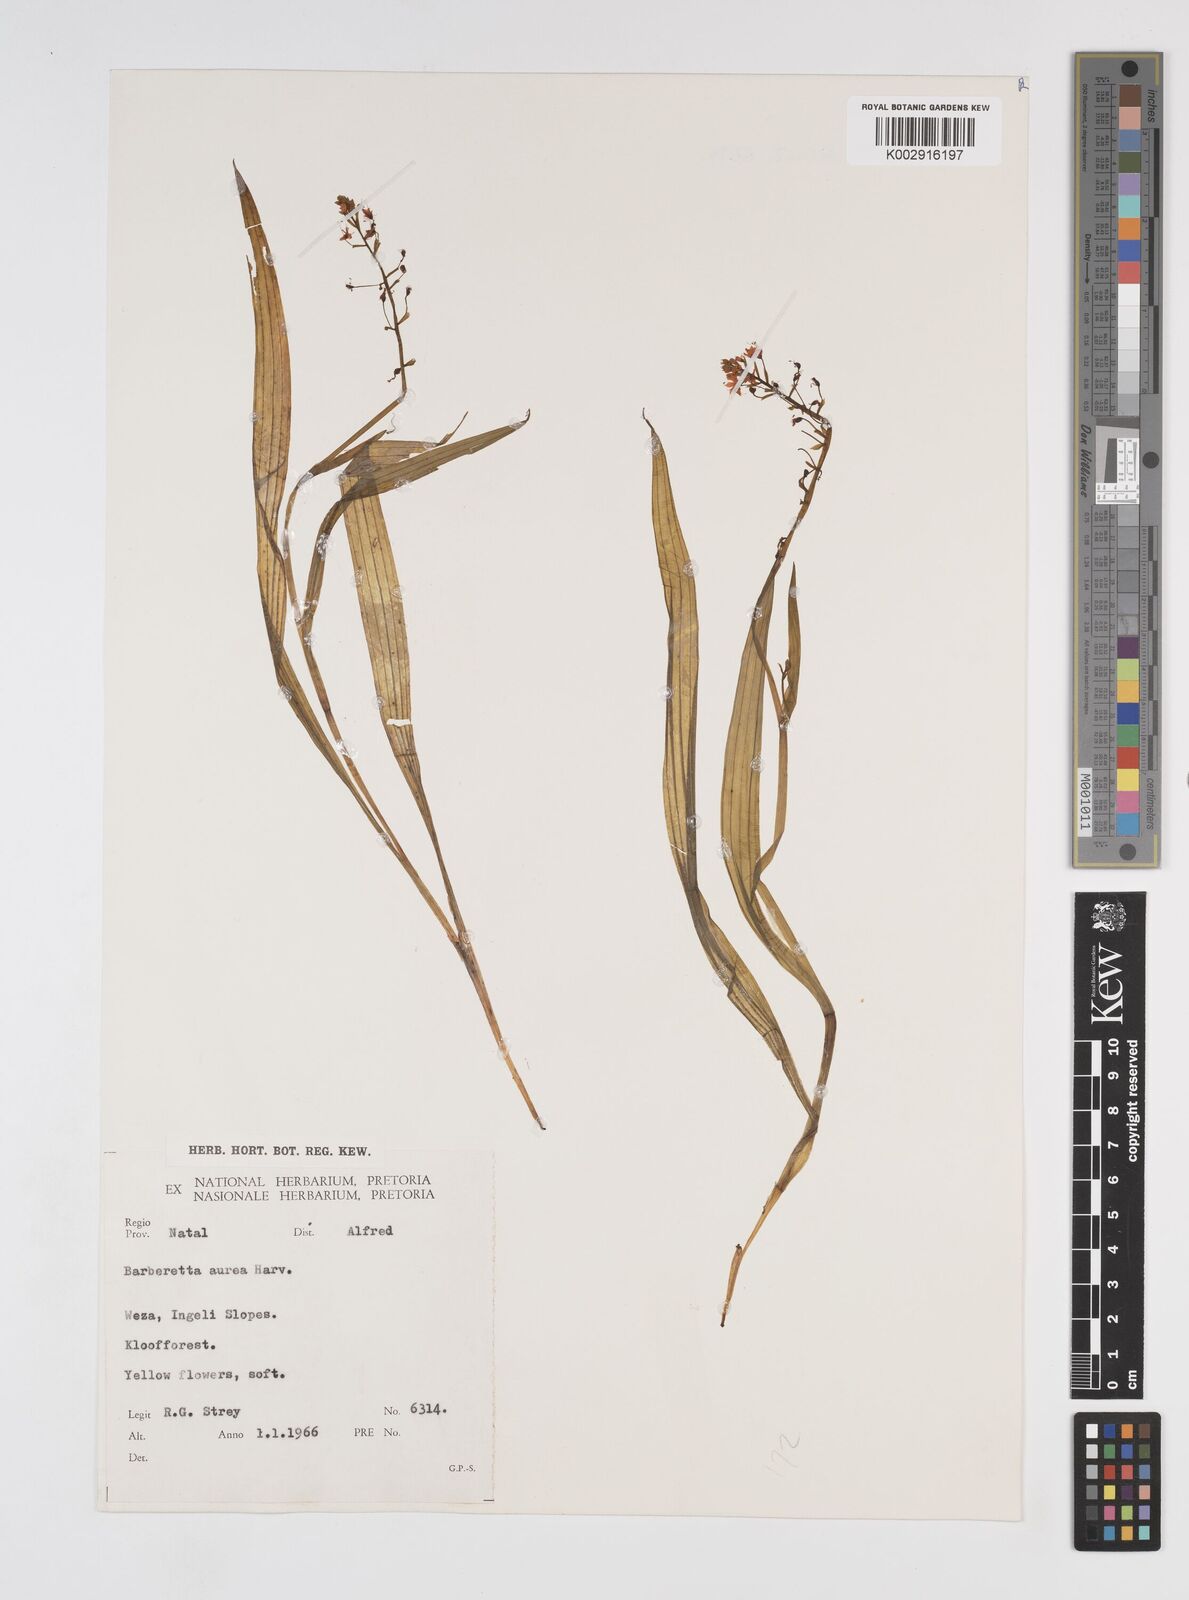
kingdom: Plantae
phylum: Tracheophyta
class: Liliopsida
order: Commelinales
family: Haemodoraceae
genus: Barberetta
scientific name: Barberetta aurea
